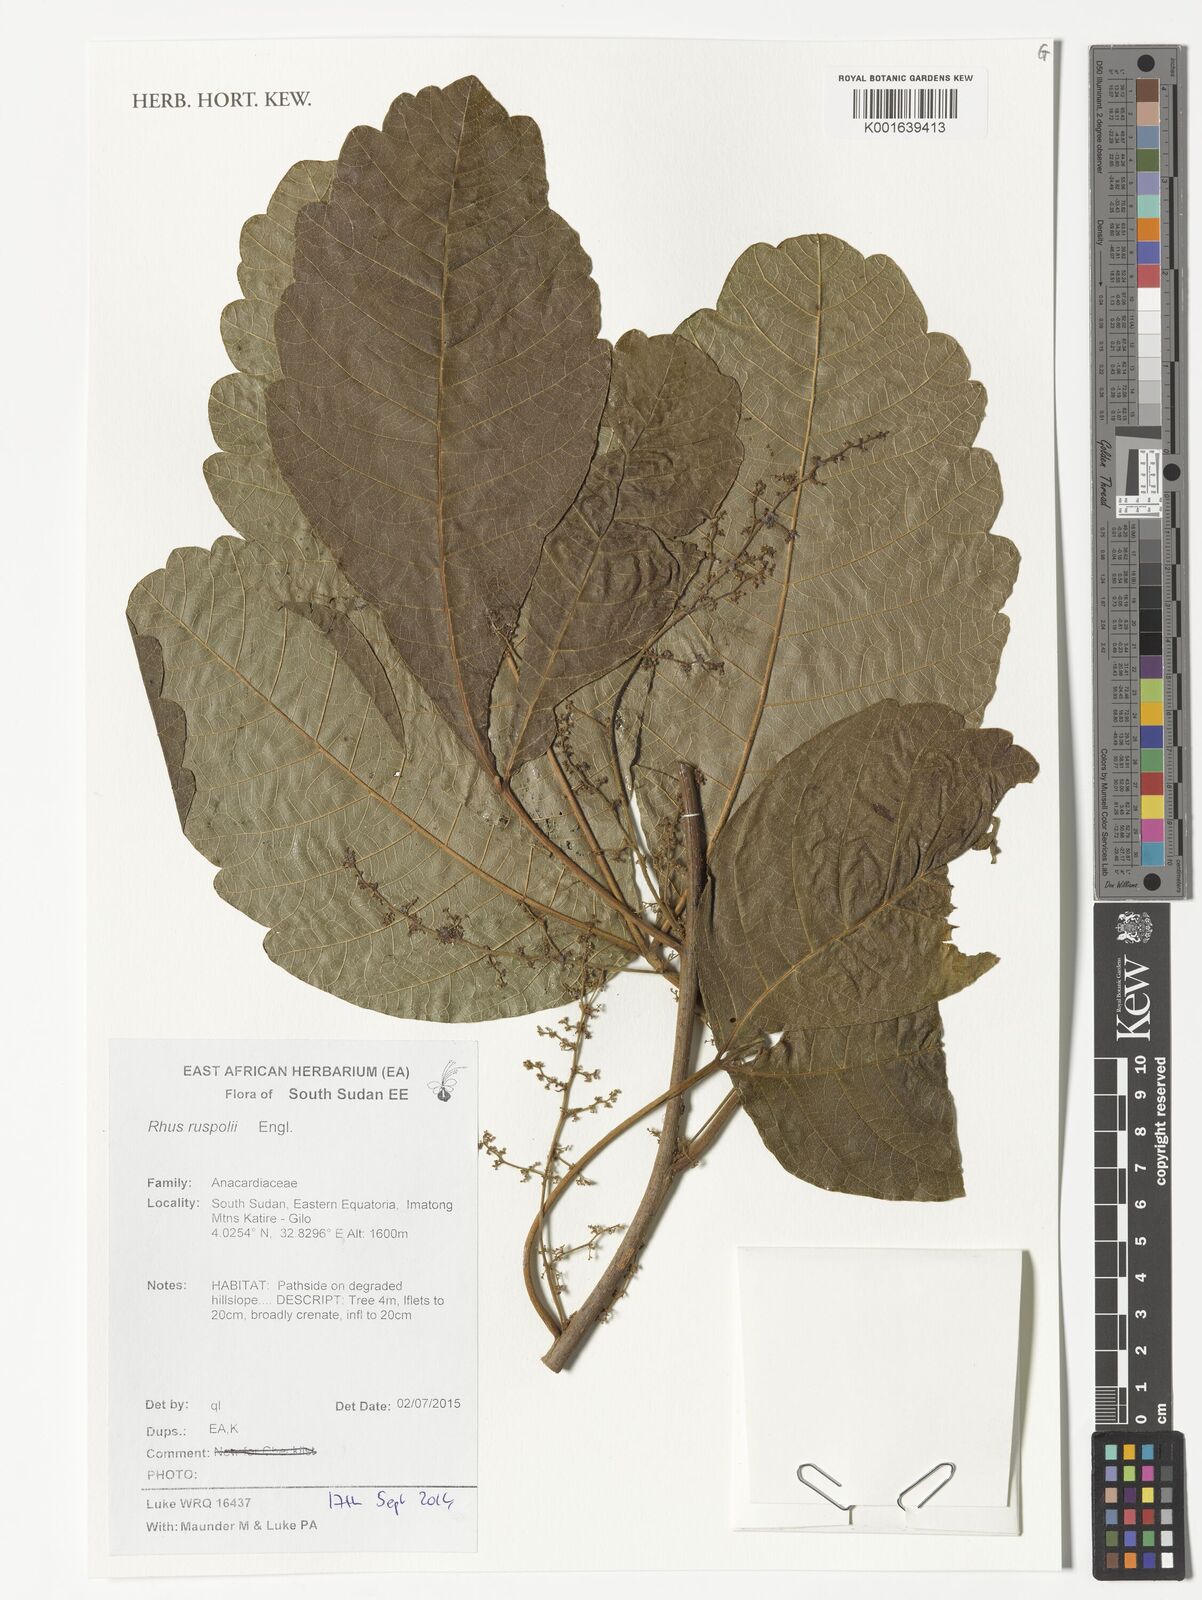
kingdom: Plantae
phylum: Tracheophyta
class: Magnoliopsida
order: Sapindales
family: Anacardiaceae
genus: Searsia
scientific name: Searsia ruspolii
